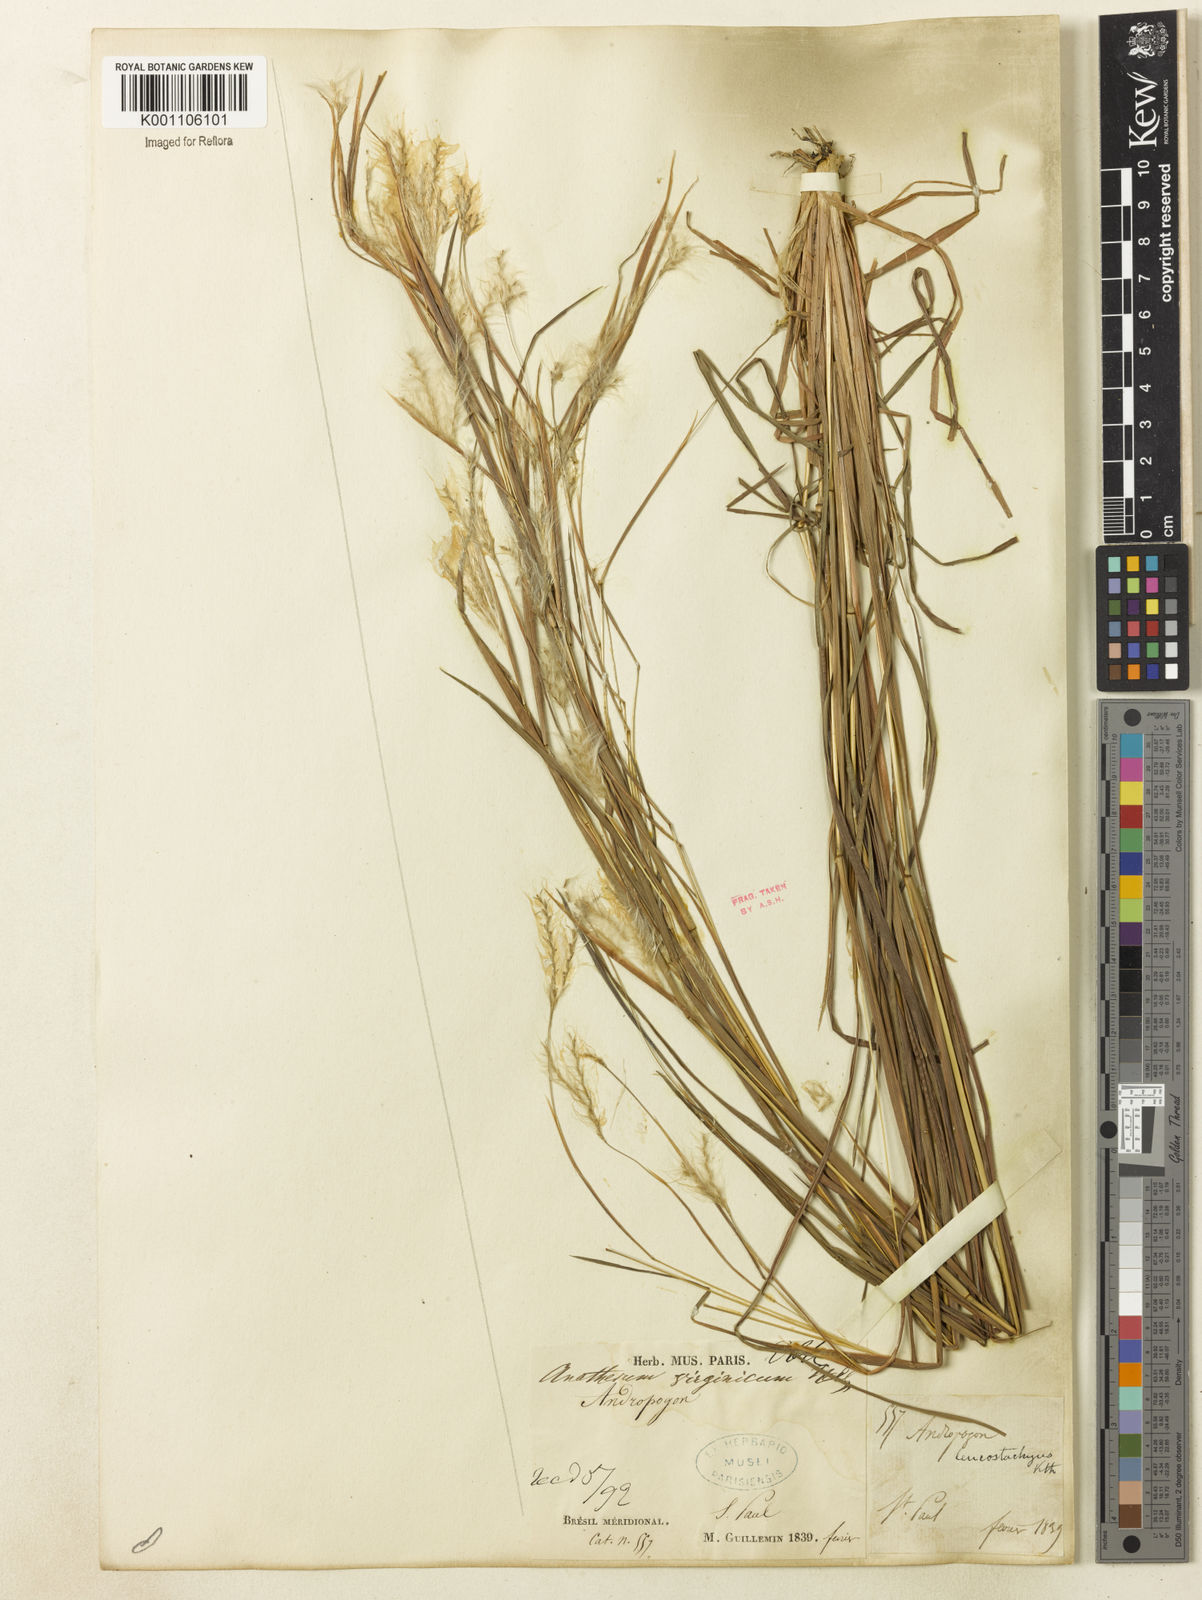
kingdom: Plantae
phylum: Tracheophyta
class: Liliopsida
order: Poales
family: Poaceae
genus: Andropogon
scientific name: Andropogon leucostachyus
